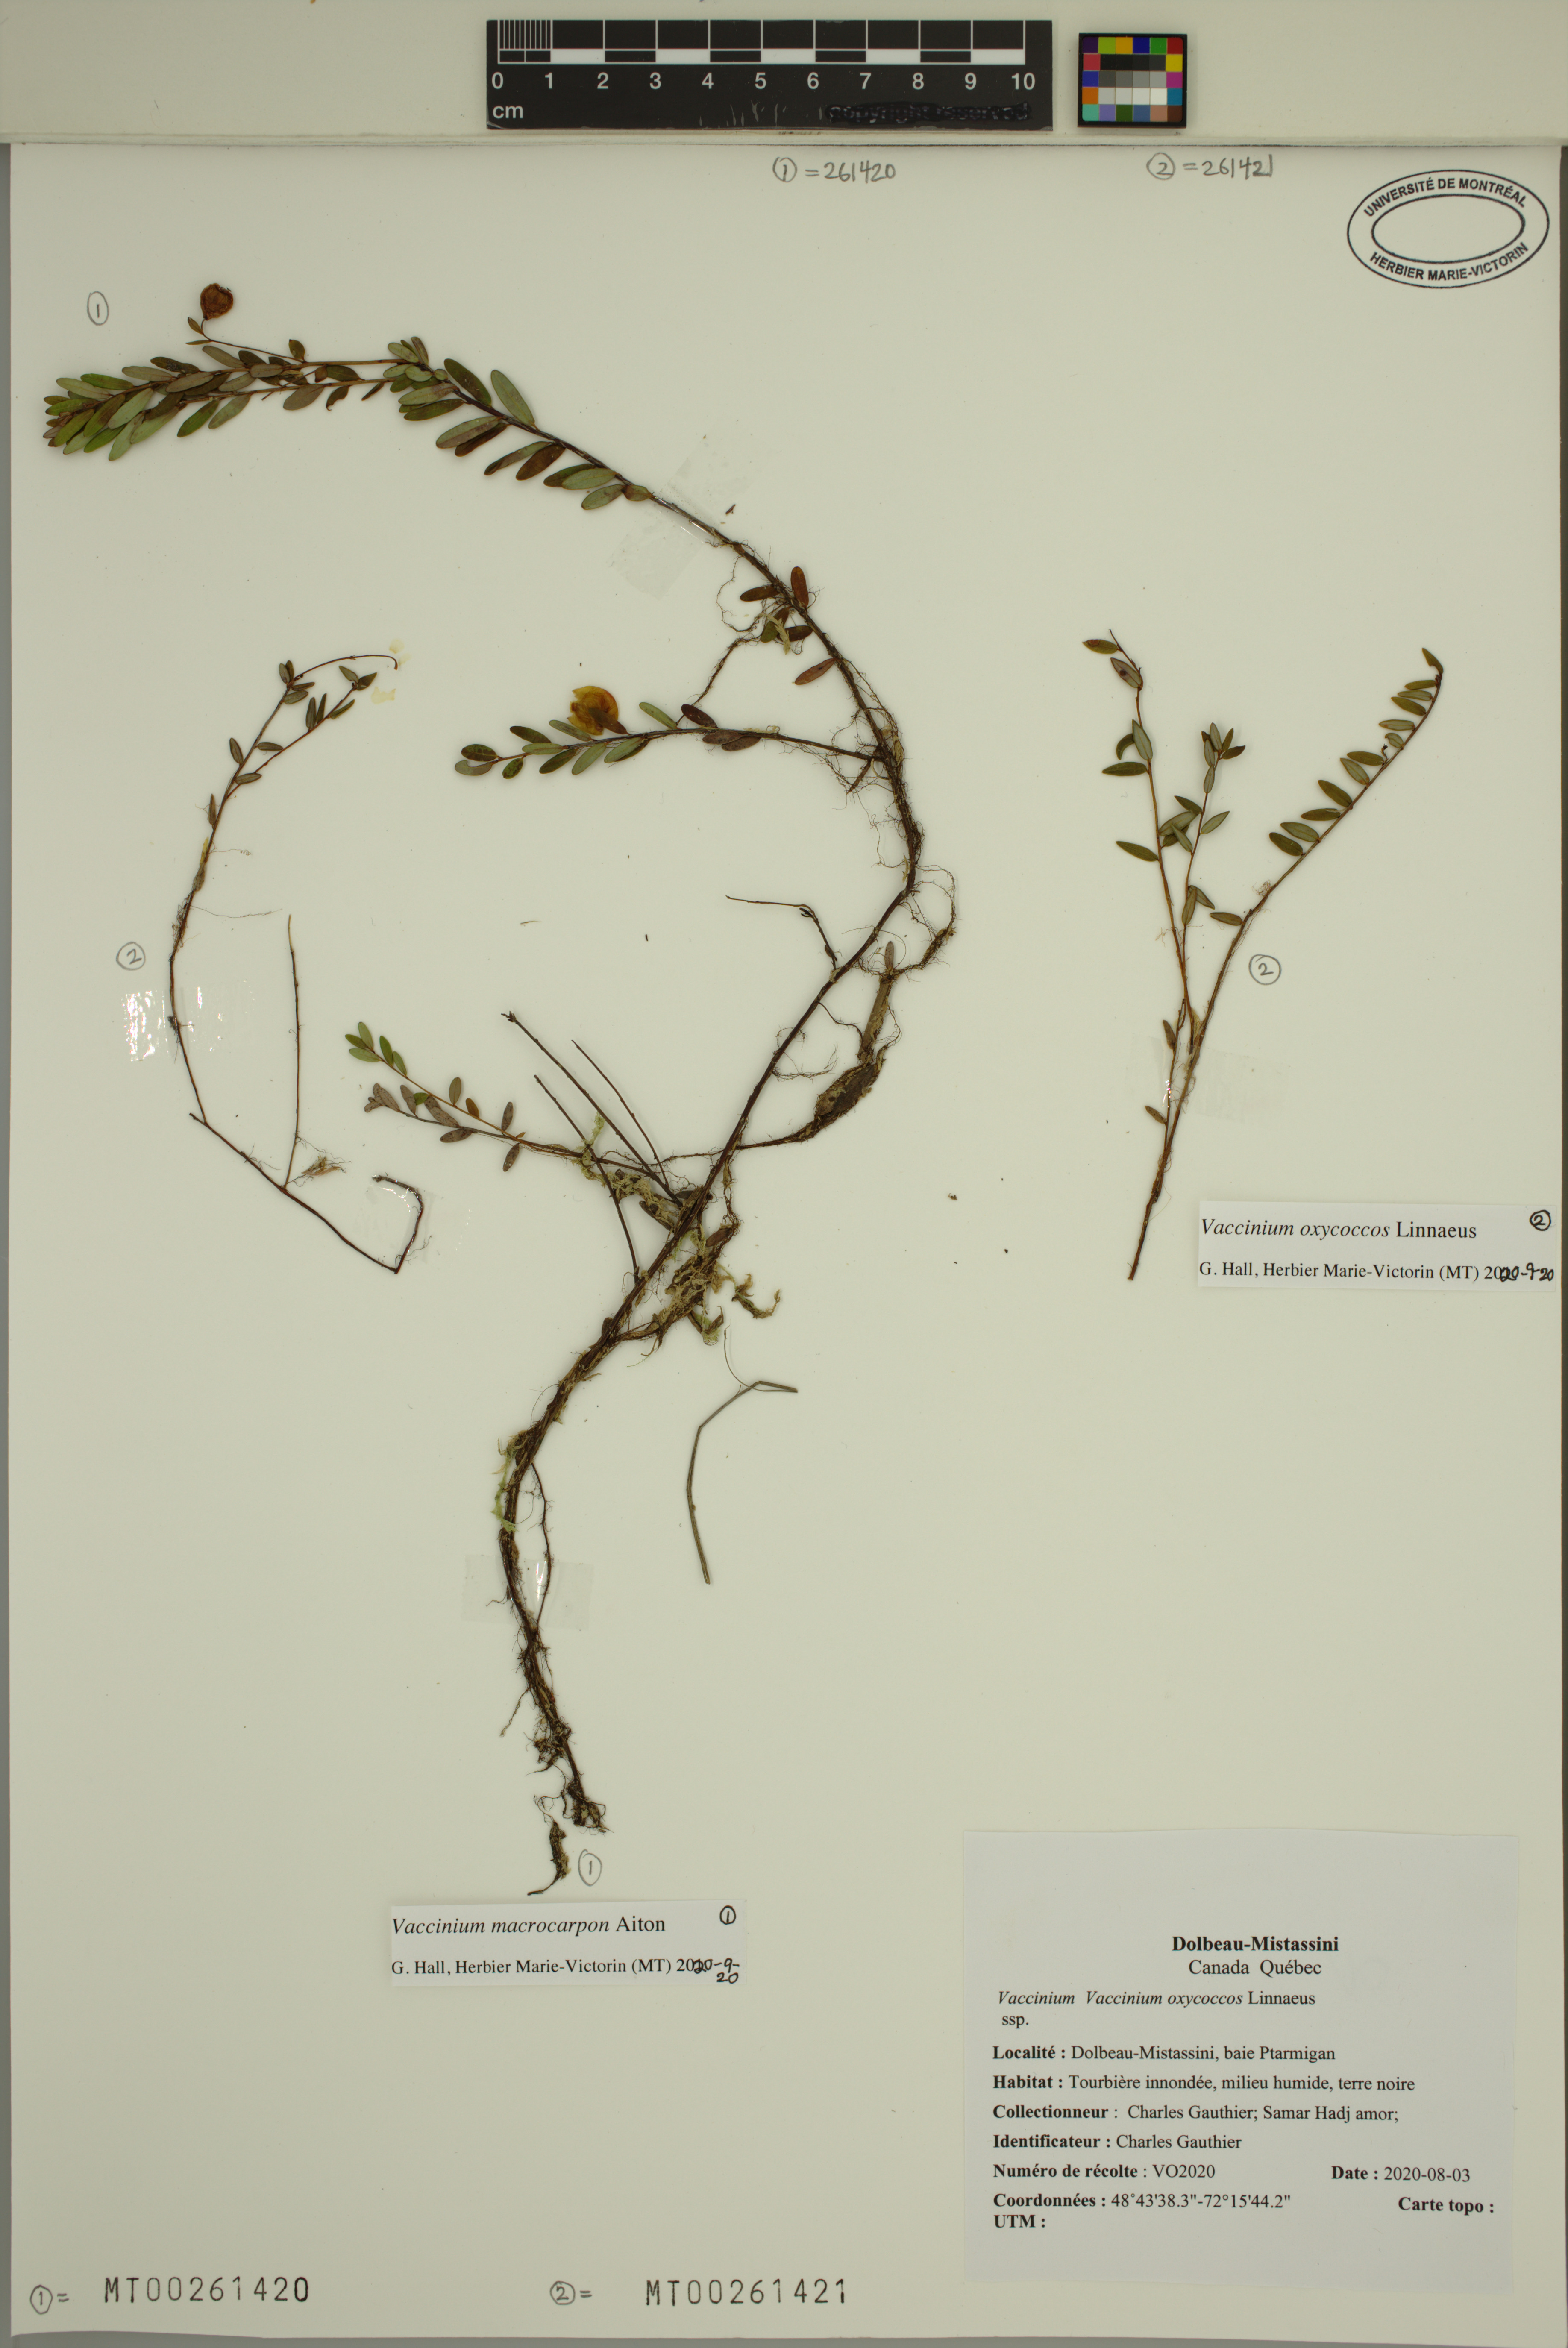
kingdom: Plantae
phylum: Tracheophyta
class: Magnoliopsida
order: Ericales
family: Ericaceae
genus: Vaccinium
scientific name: Vaccinium oxycoccos
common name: Cranberry
